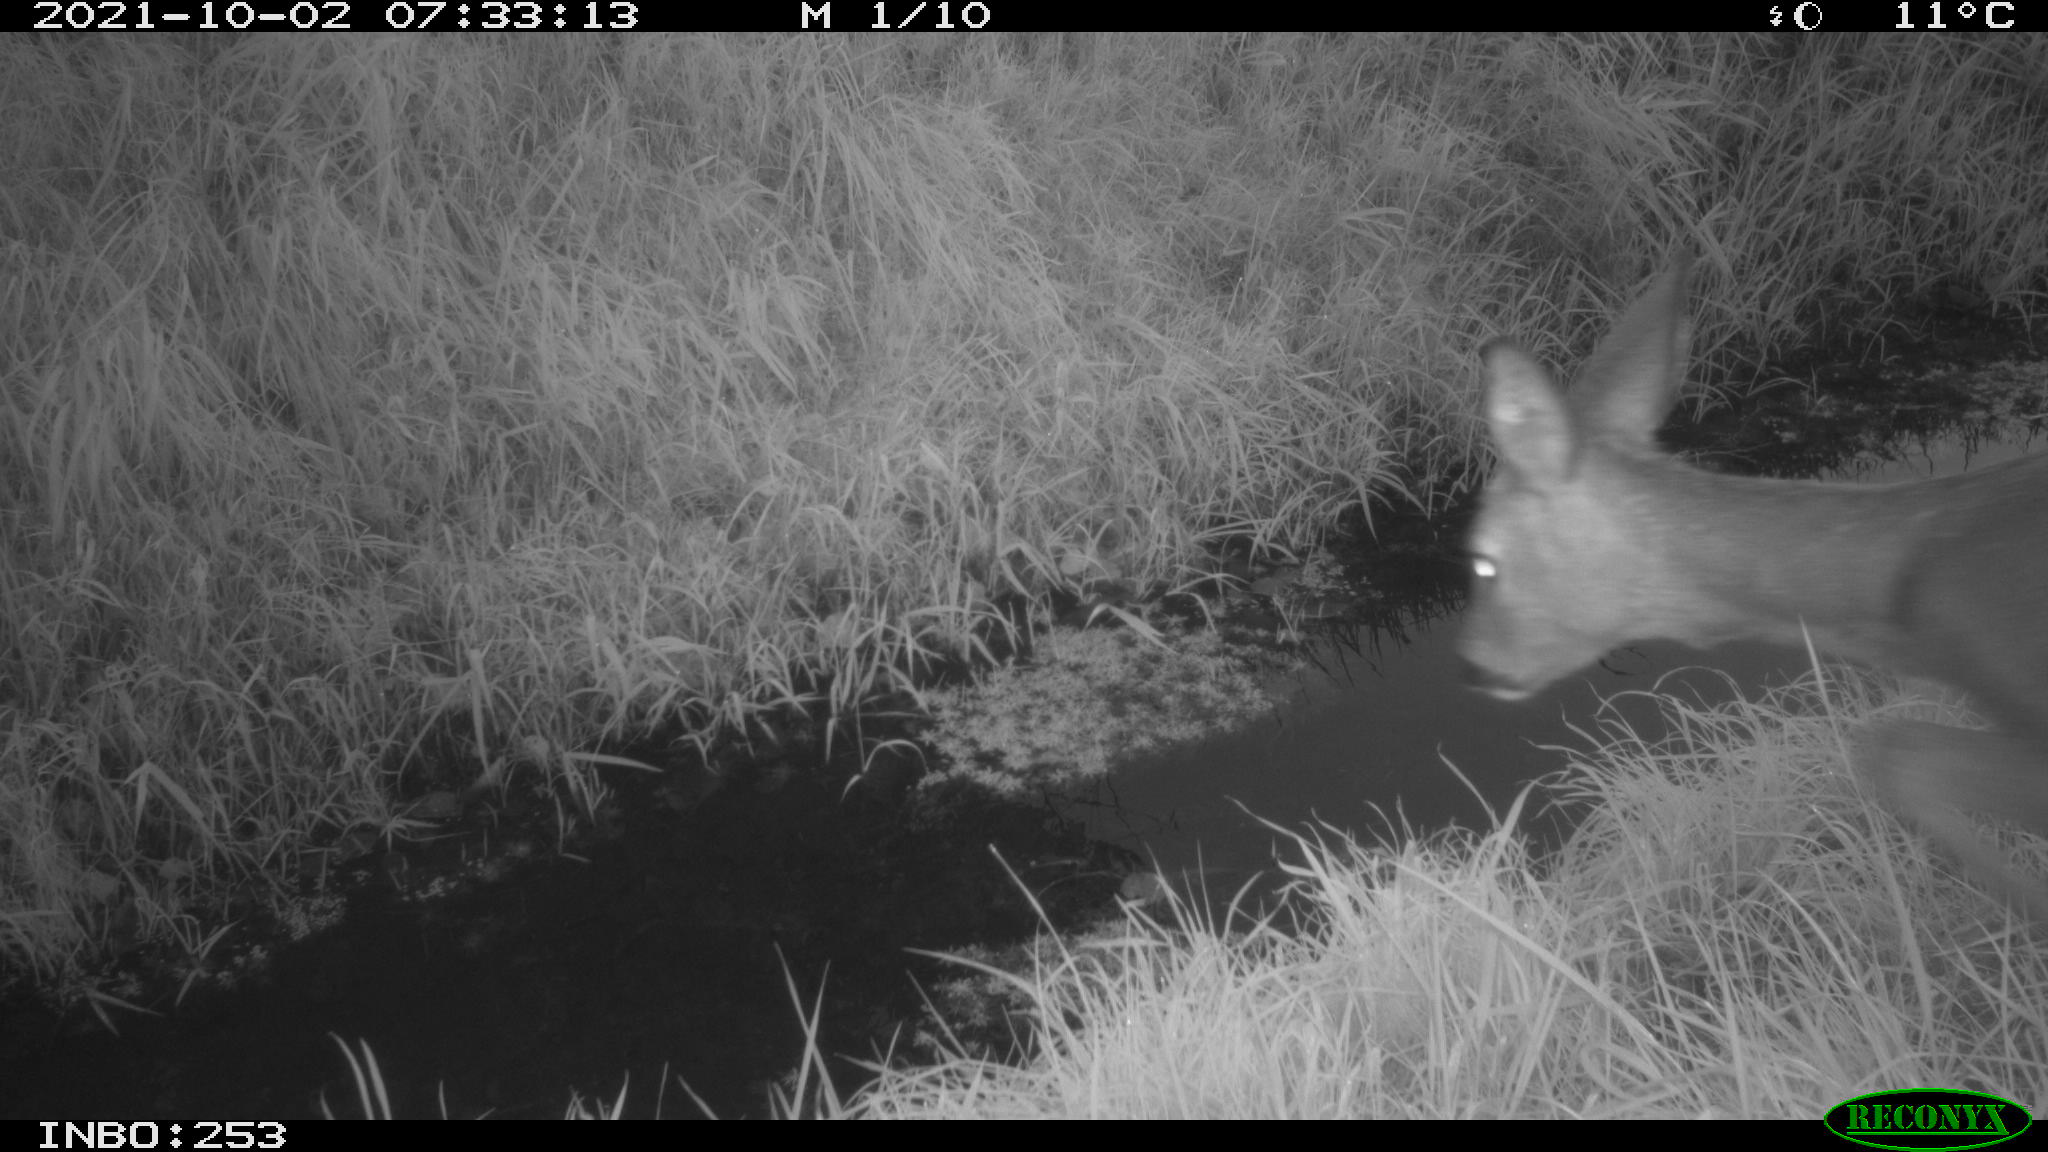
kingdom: Animalia
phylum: Chordata
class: Mammalia
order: Artiodactyla
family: Cervidae
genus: Capreolus
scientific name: Capreolus capreolus
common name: Western roe deer
